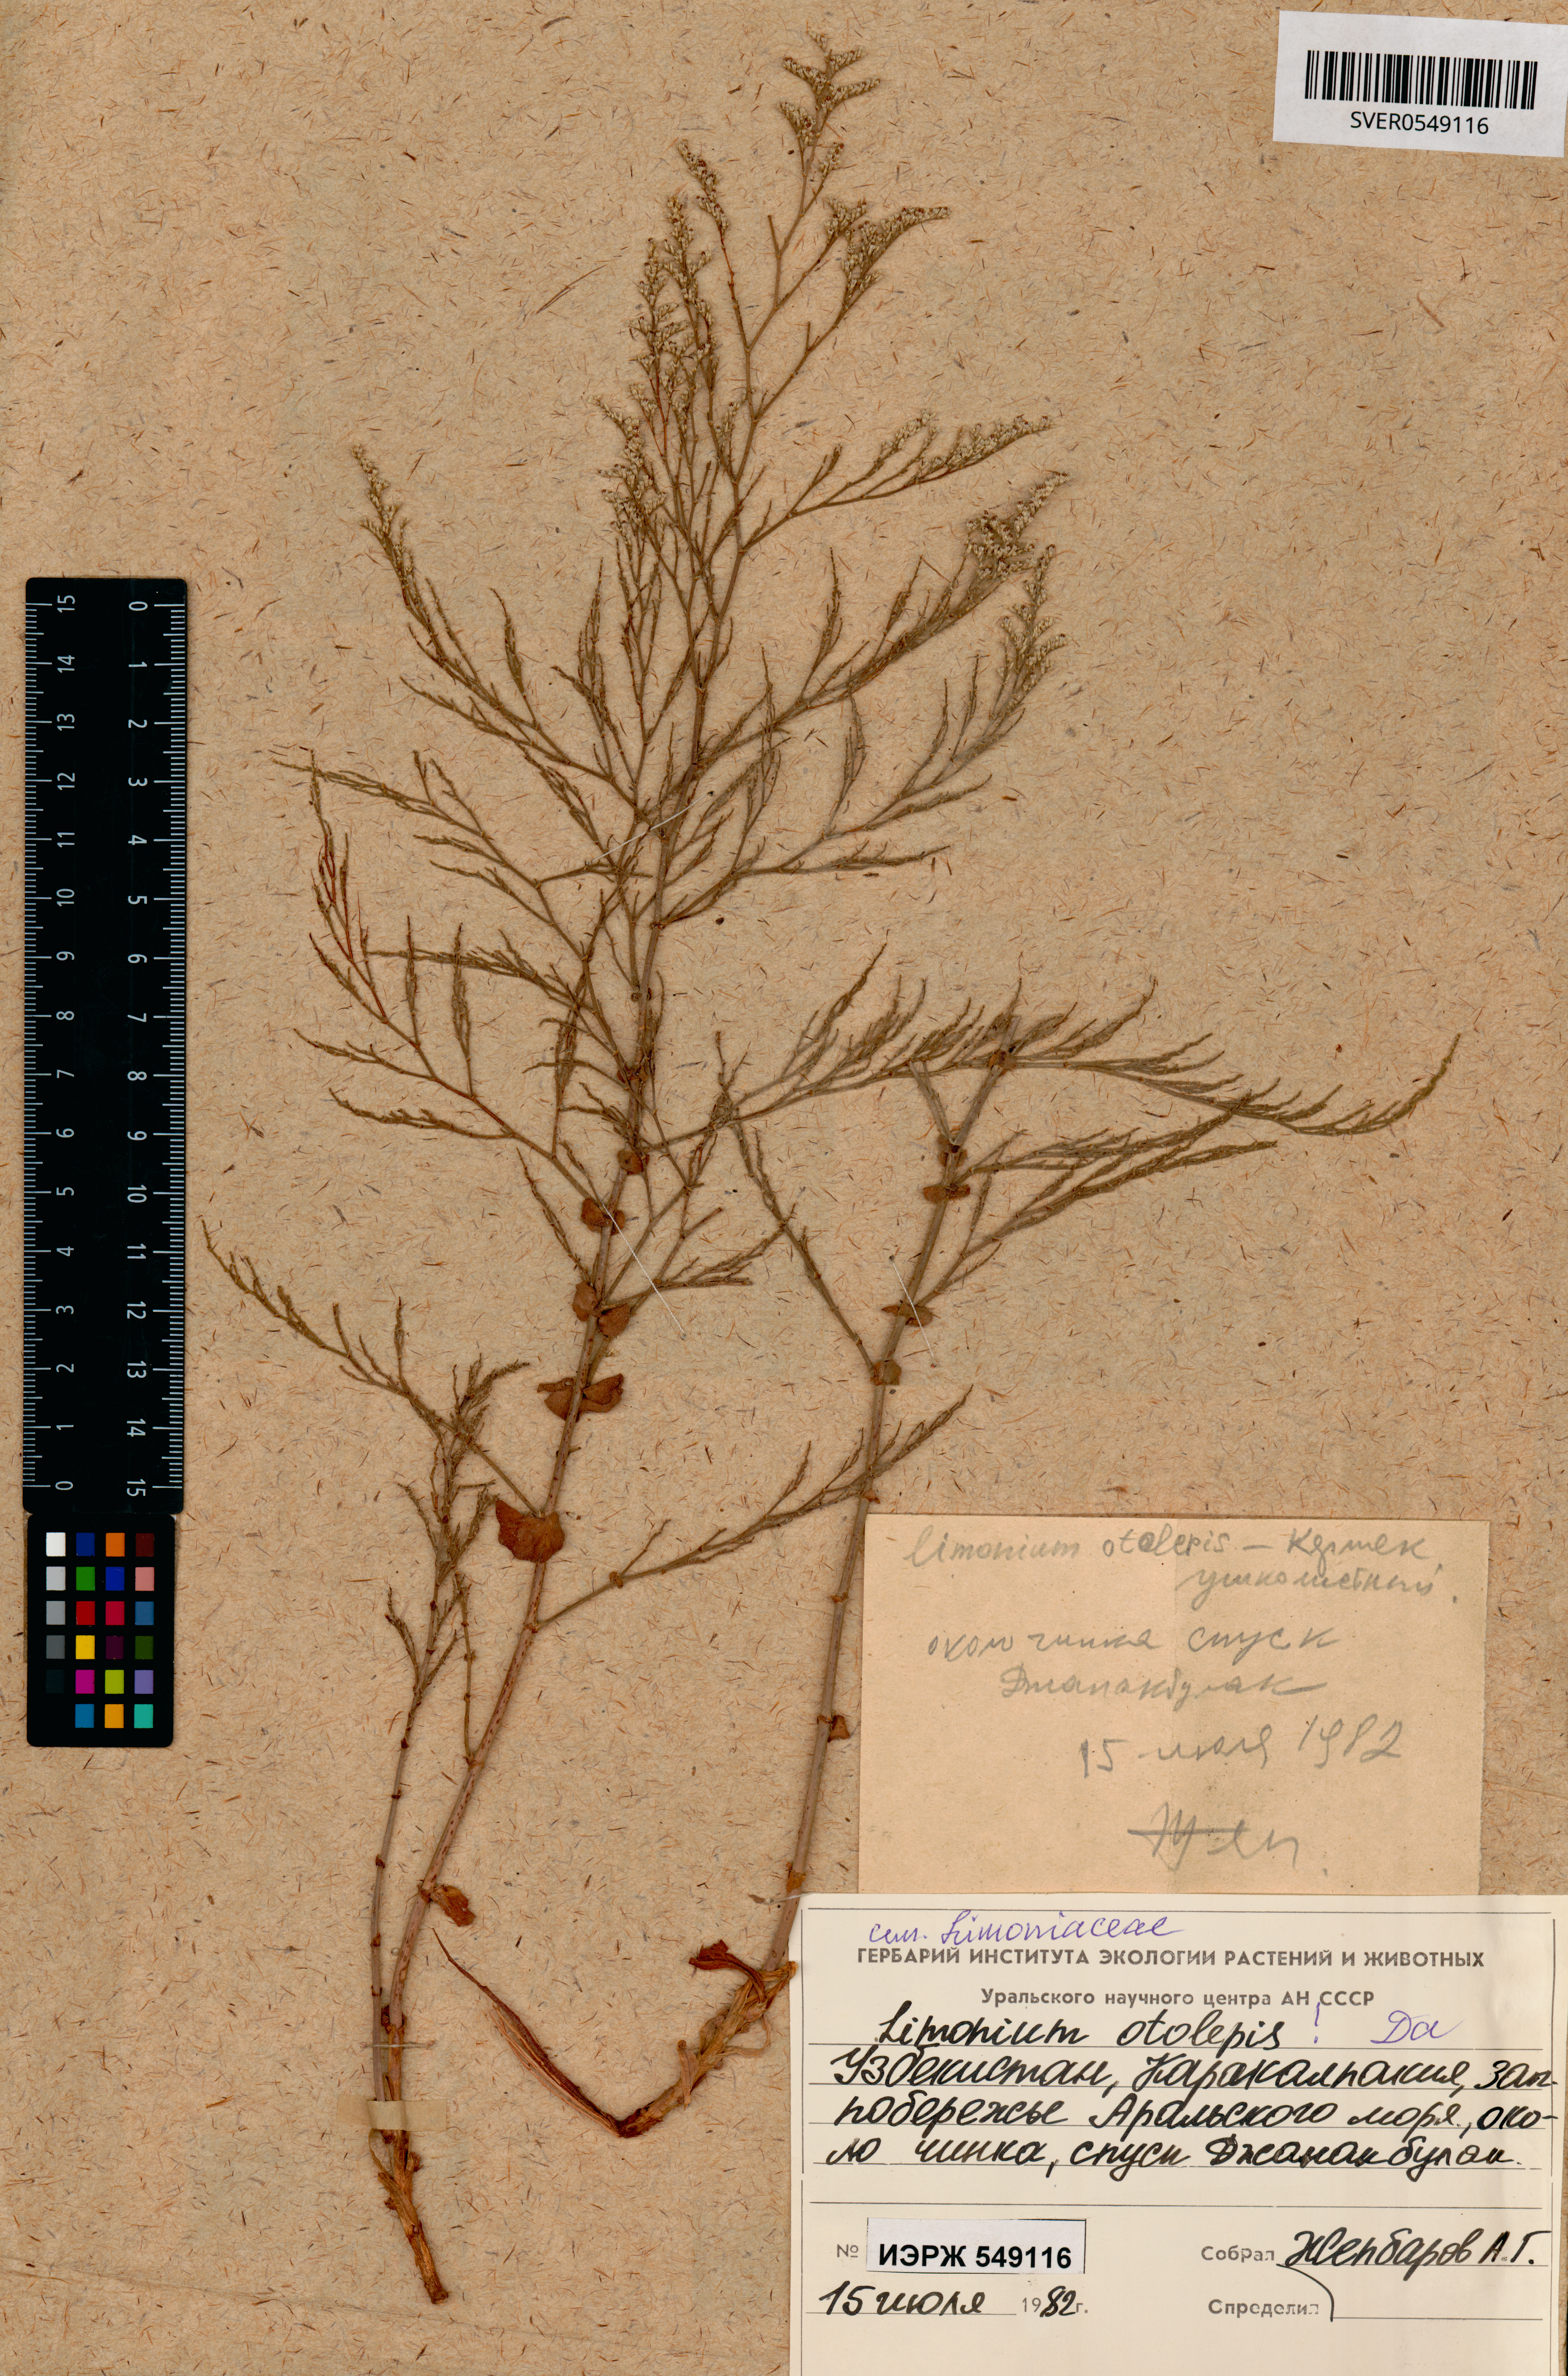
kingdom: Plantae
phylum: Tracheophyta
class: Magnoliopsida
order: Caryophyllales
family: Plumbaginaceae
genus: Limonium
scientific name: Limonium otolepis
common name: Saltmarsh sea lavender
